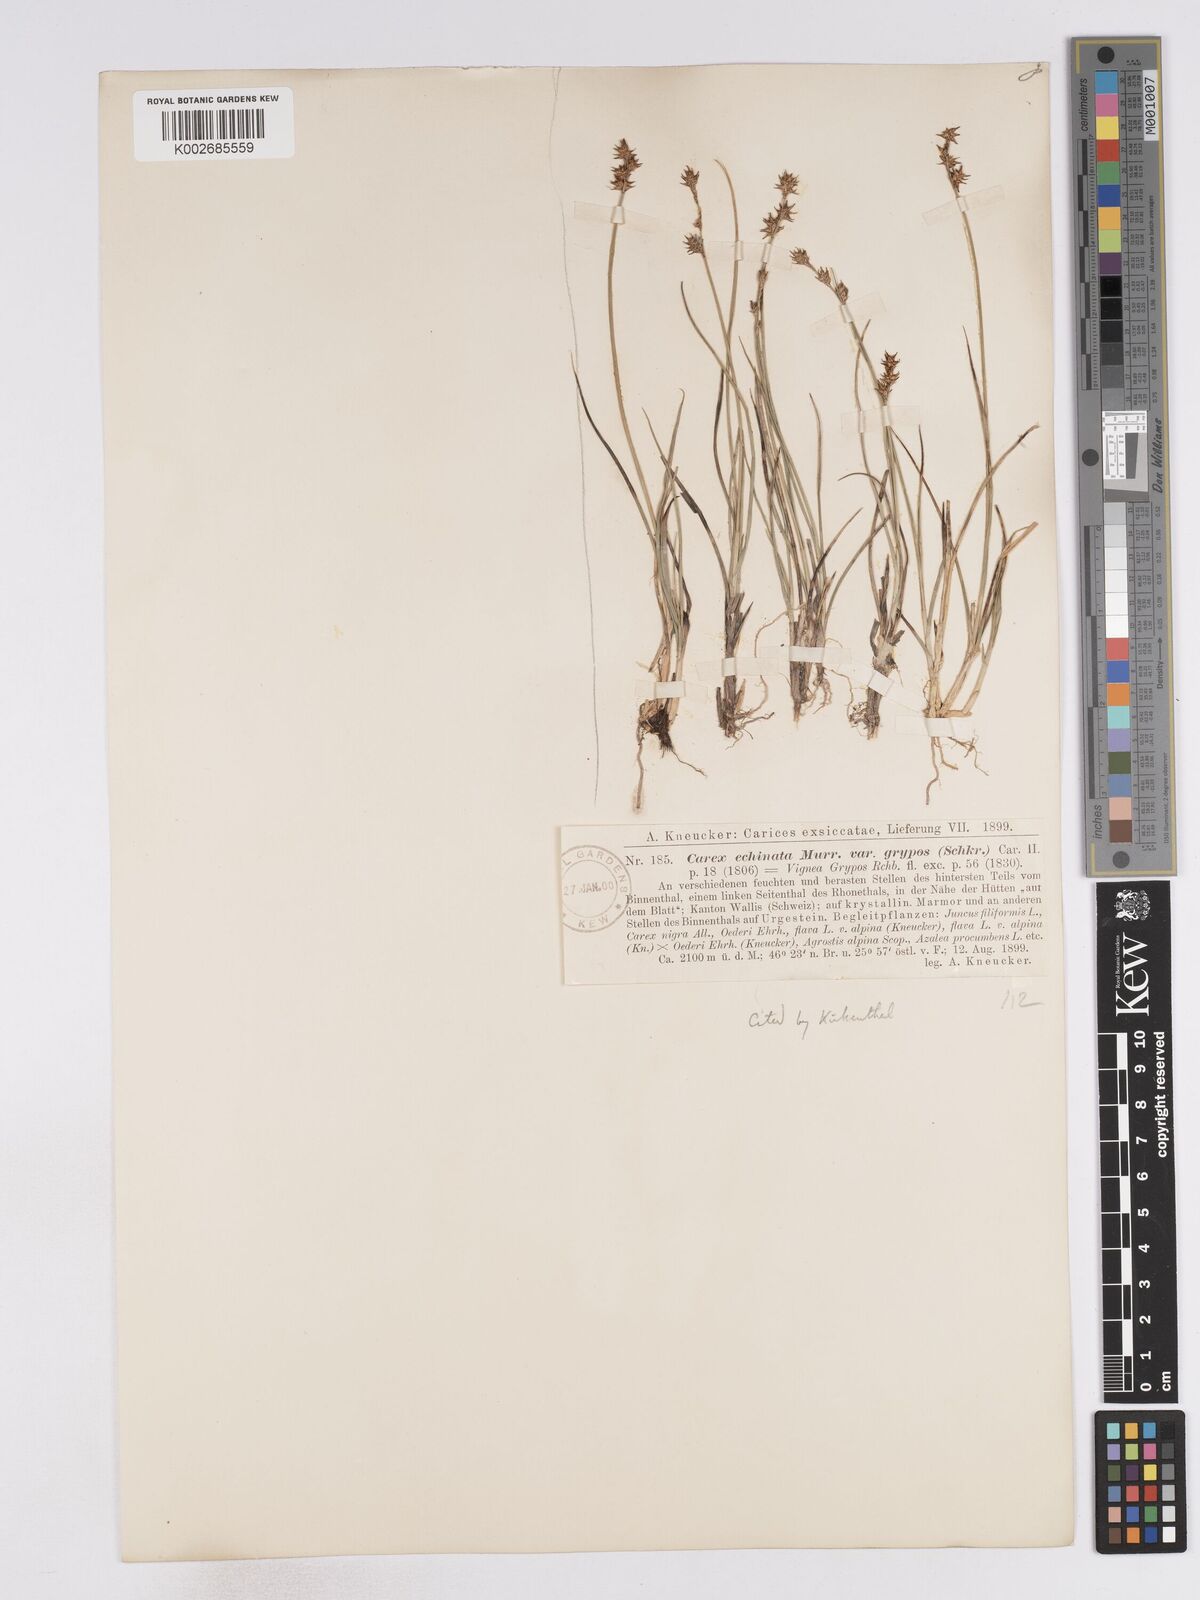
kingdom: Plantae
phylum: Tracheophyta
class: Liliopsida
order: Poales
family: Cyperaceae
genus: Carex
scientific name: Carex echinata
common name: Star sedge
